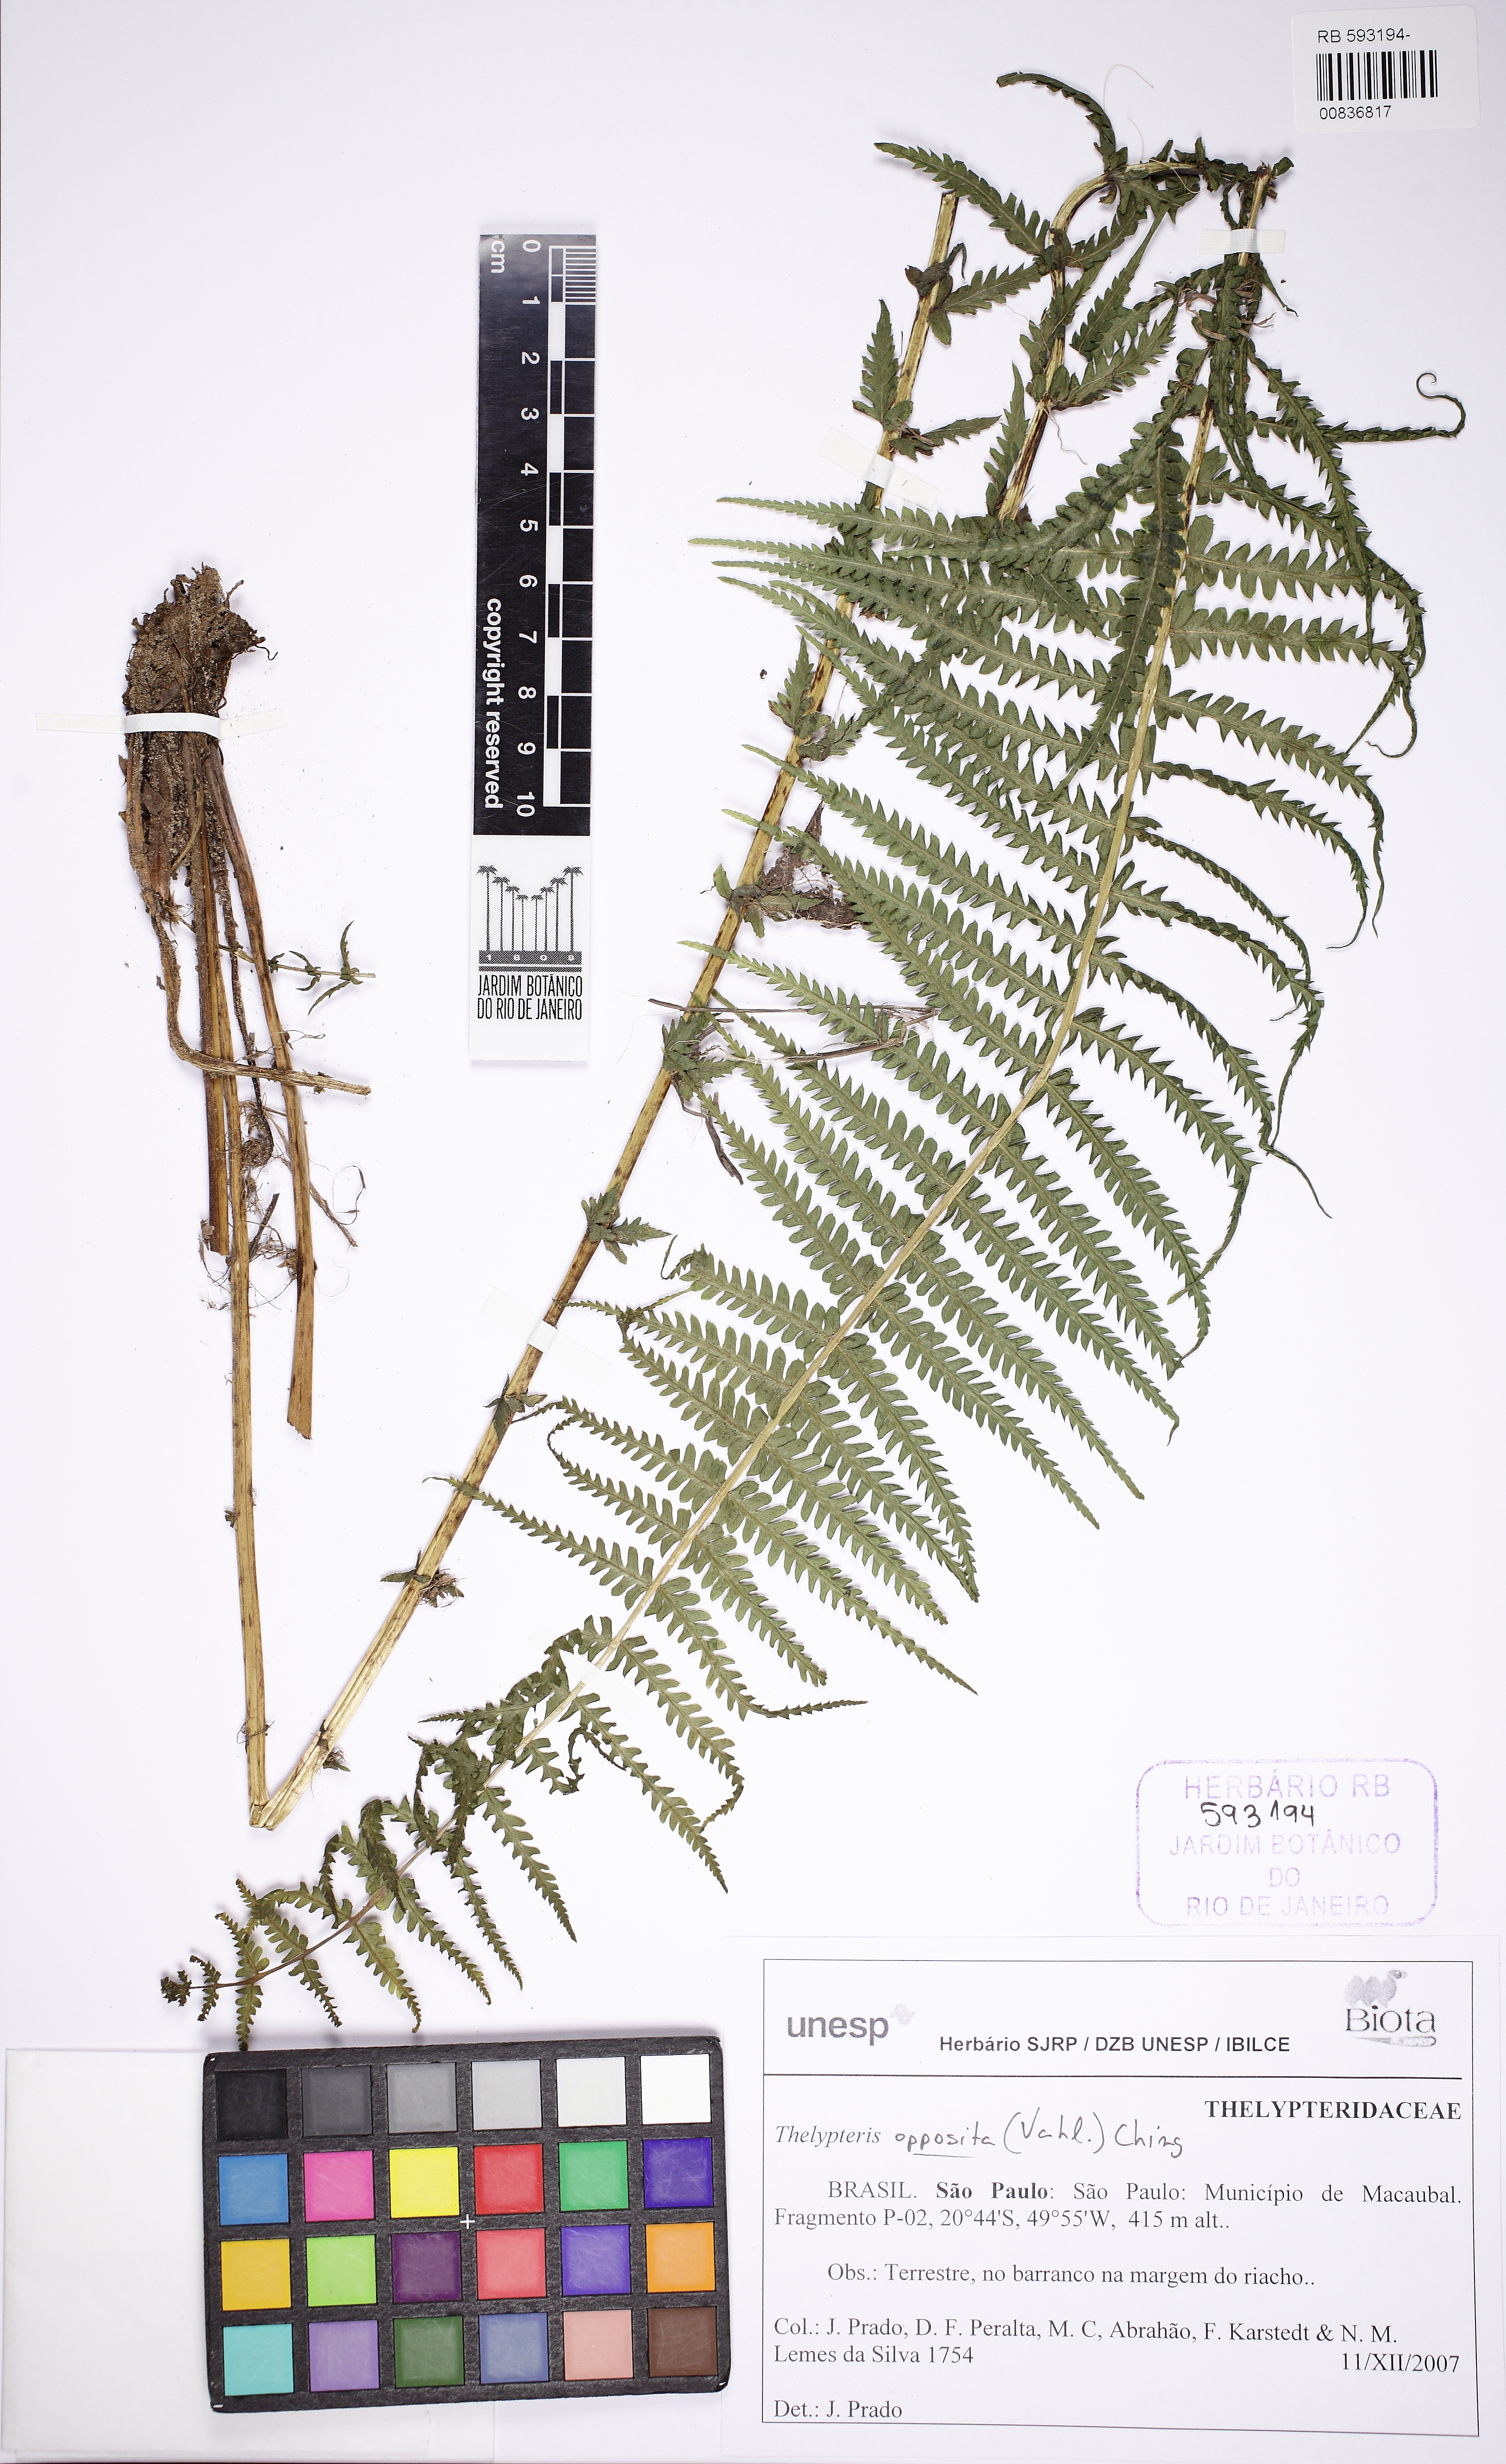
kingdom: Plantae
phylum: Tracheophyta
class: Polypodiopsida
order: Polypodiales
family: Thelypteridaceae
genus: Amauropelta
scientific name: Amauropelta opposita
